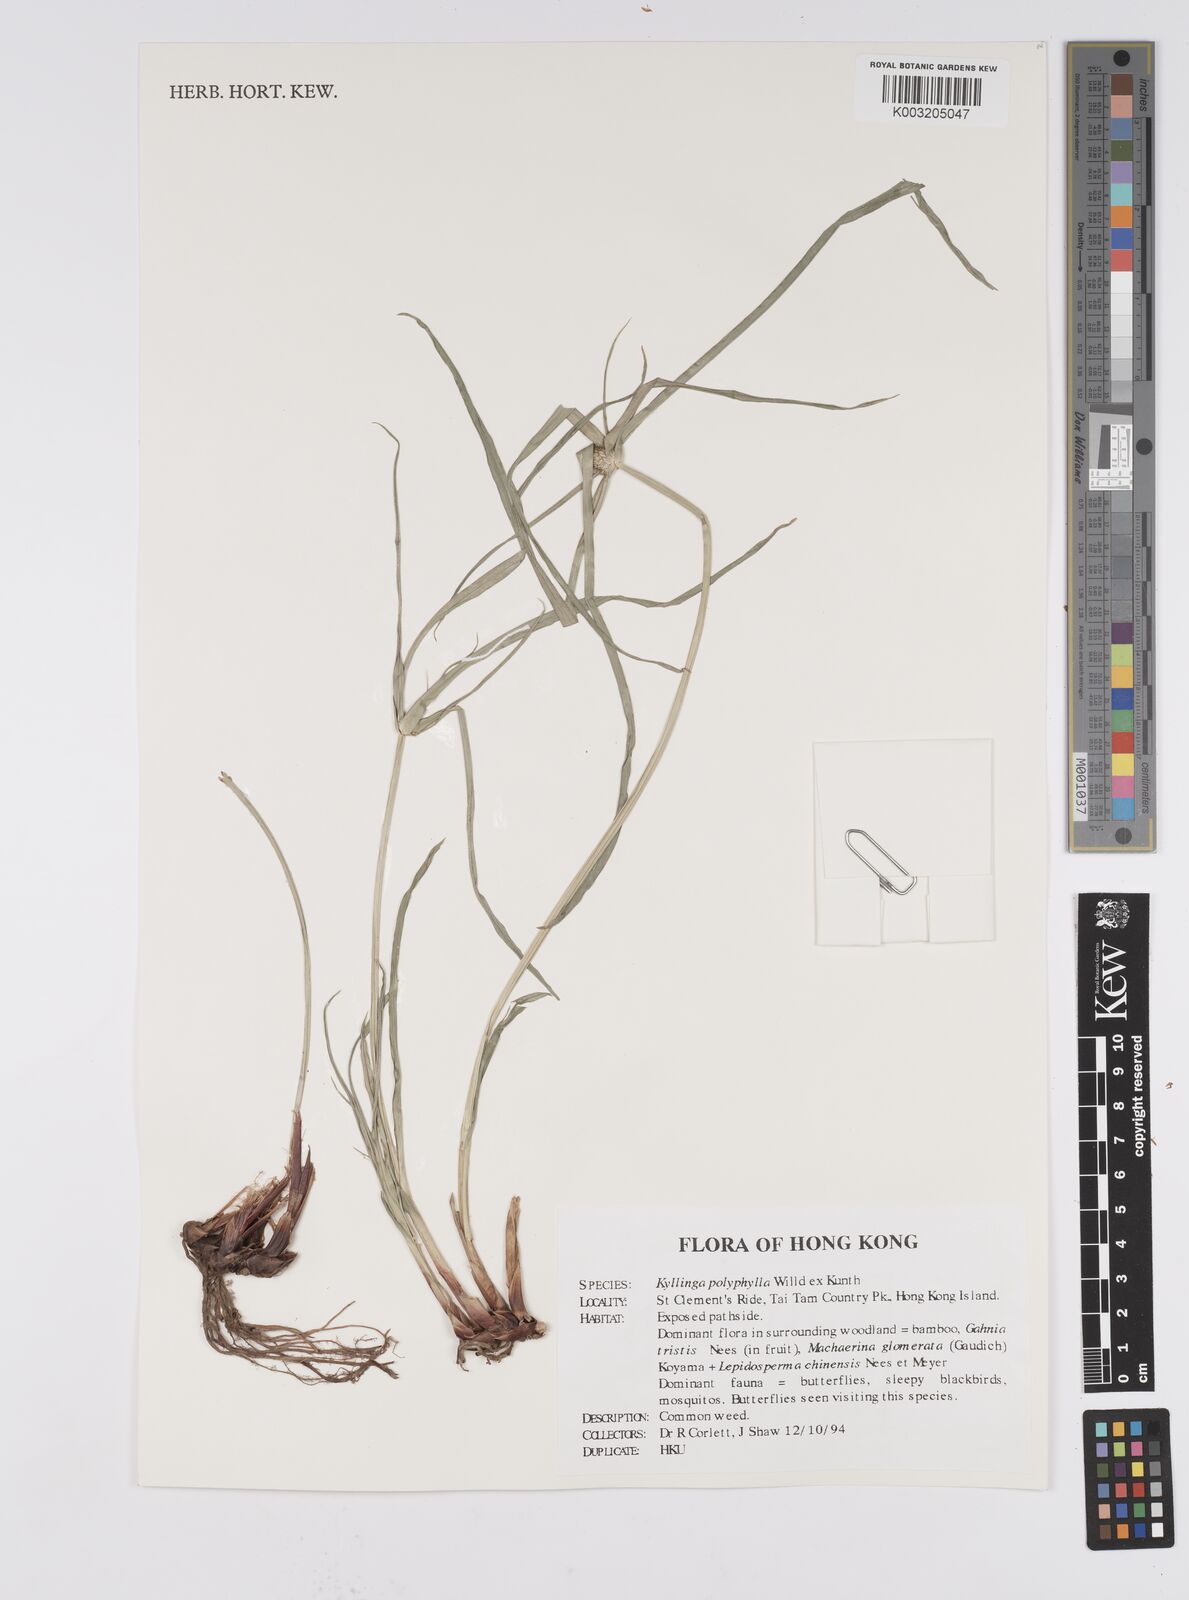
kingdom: Plantae
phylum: Tracheophyta
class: Liliopsida
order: Poales
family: Cyperaceae
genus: Cyperus
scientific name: Cyperus
